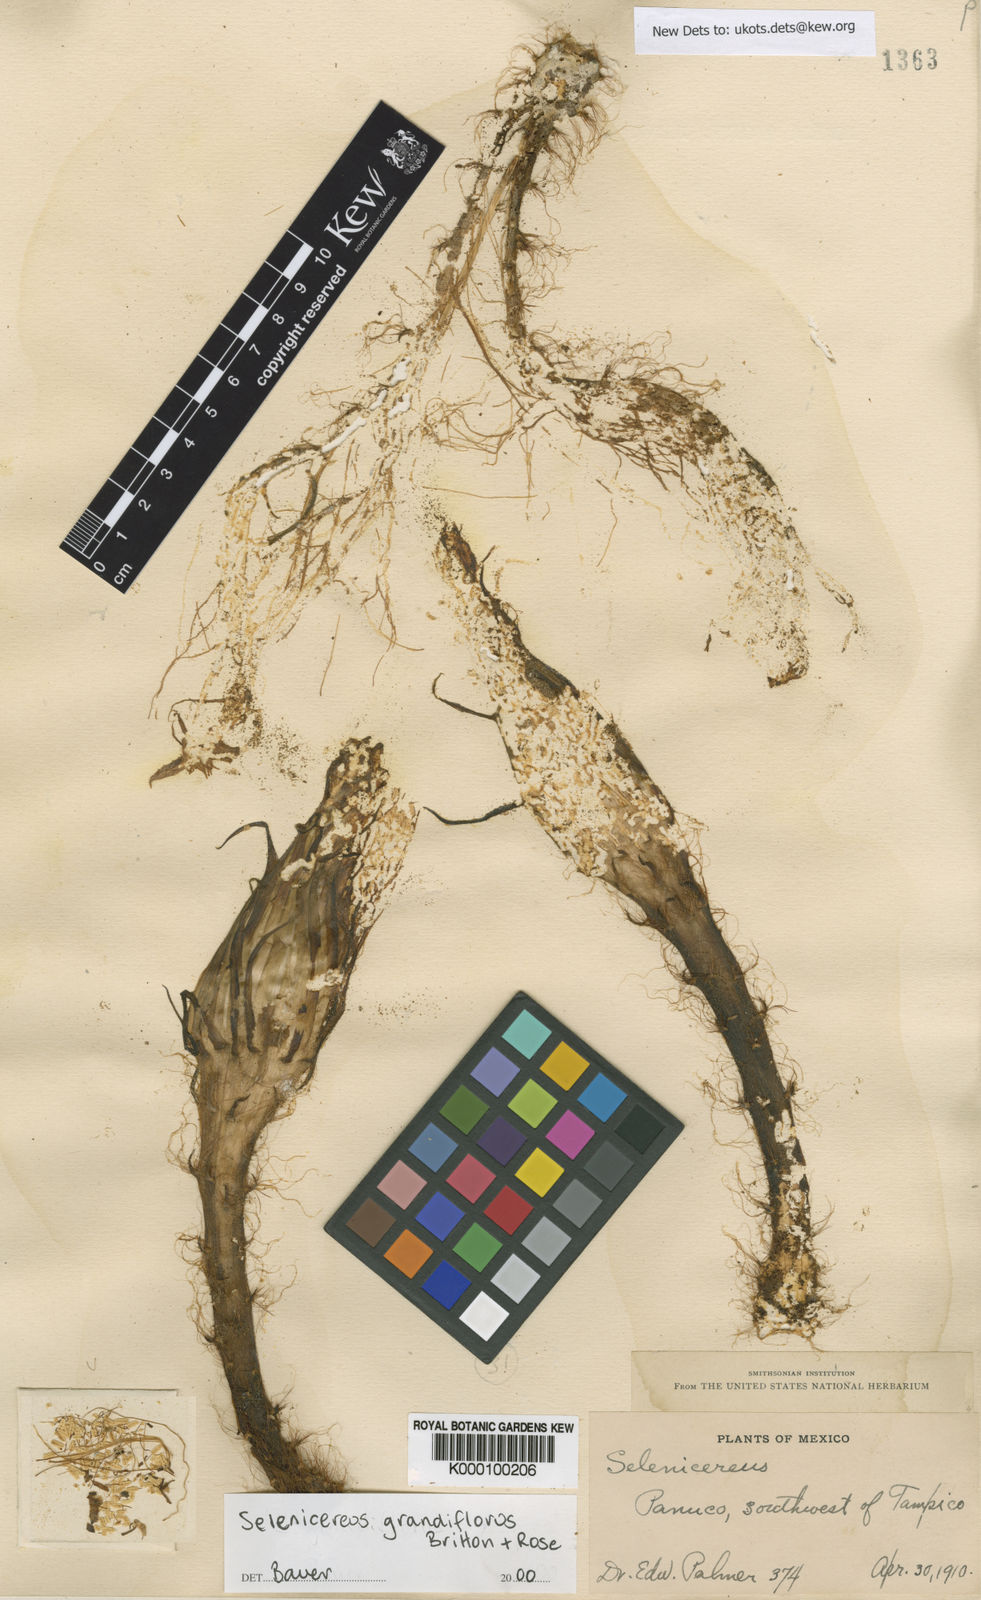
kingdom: Plantae
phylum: Tracheophyta
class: Magnoliopsida
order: Caryophyllales
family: Cactaceae
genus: Selenicereus
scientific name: Selenicereus grandiflorus
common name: Queen of the night
